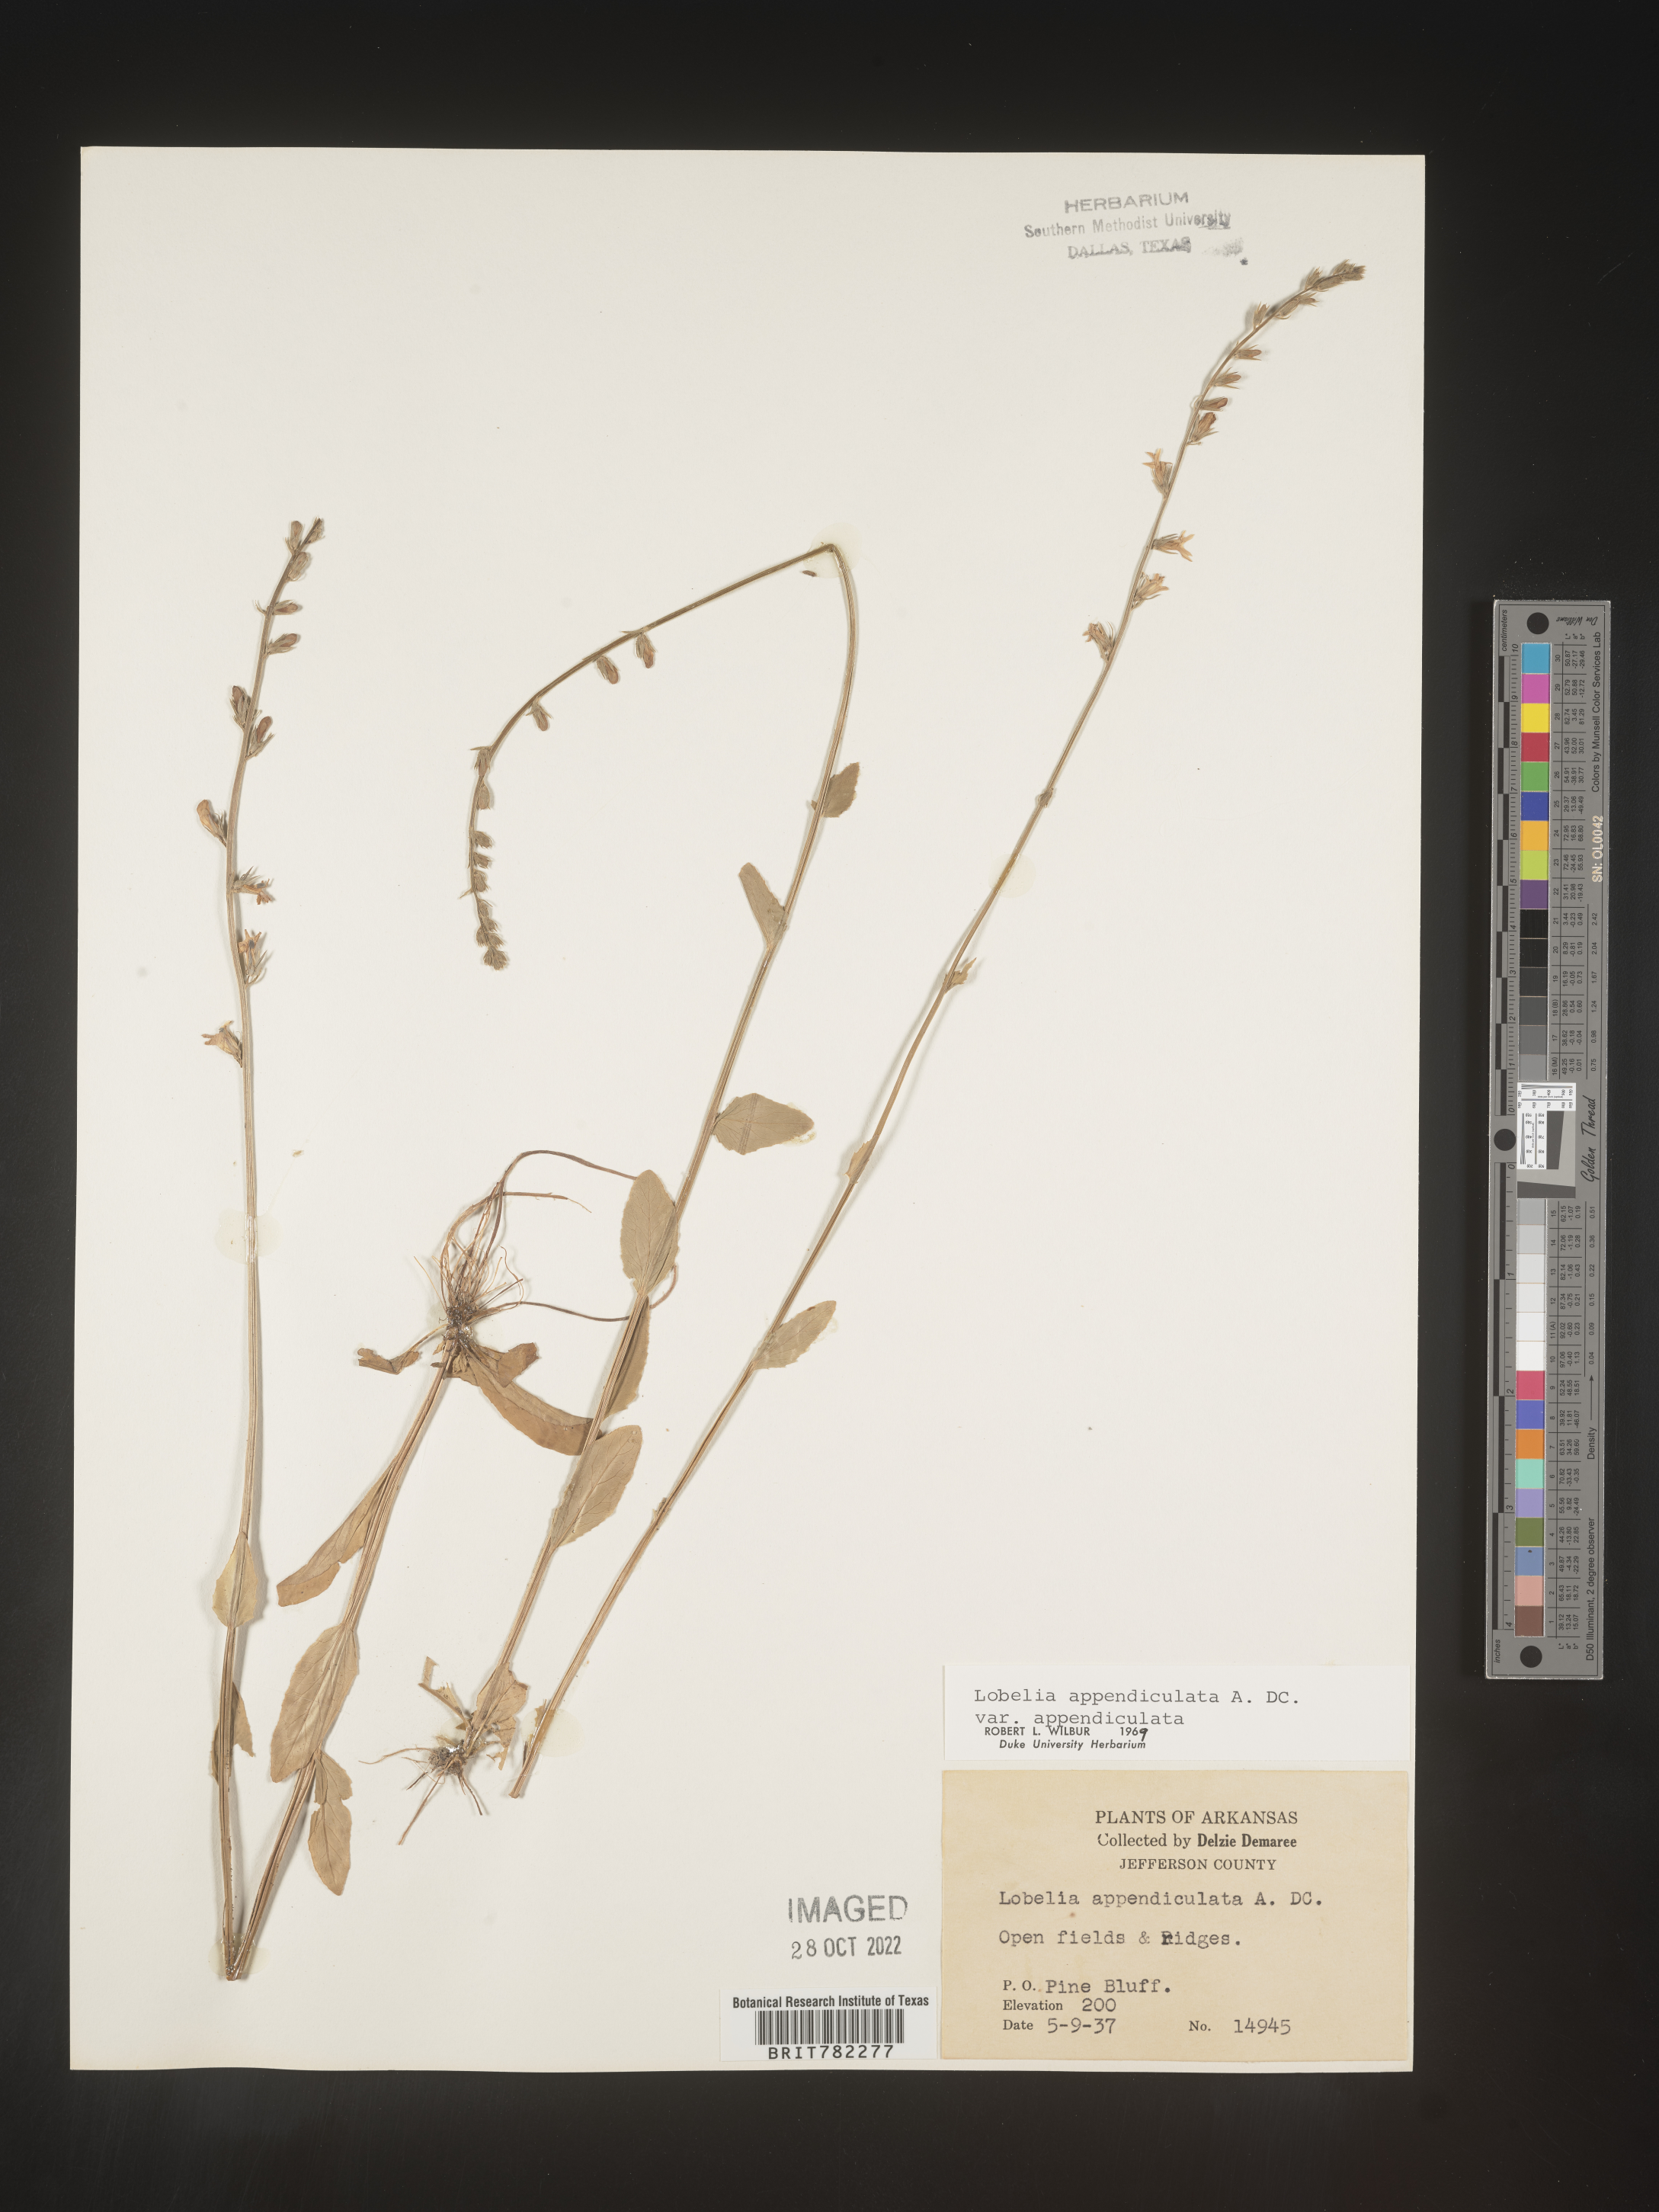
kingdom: Plantae
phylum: Tracheophyta
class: Magnoliopsida
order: Asterales
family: Campanulaceae
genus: Lobelia
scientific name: Lobelia appendiculata
